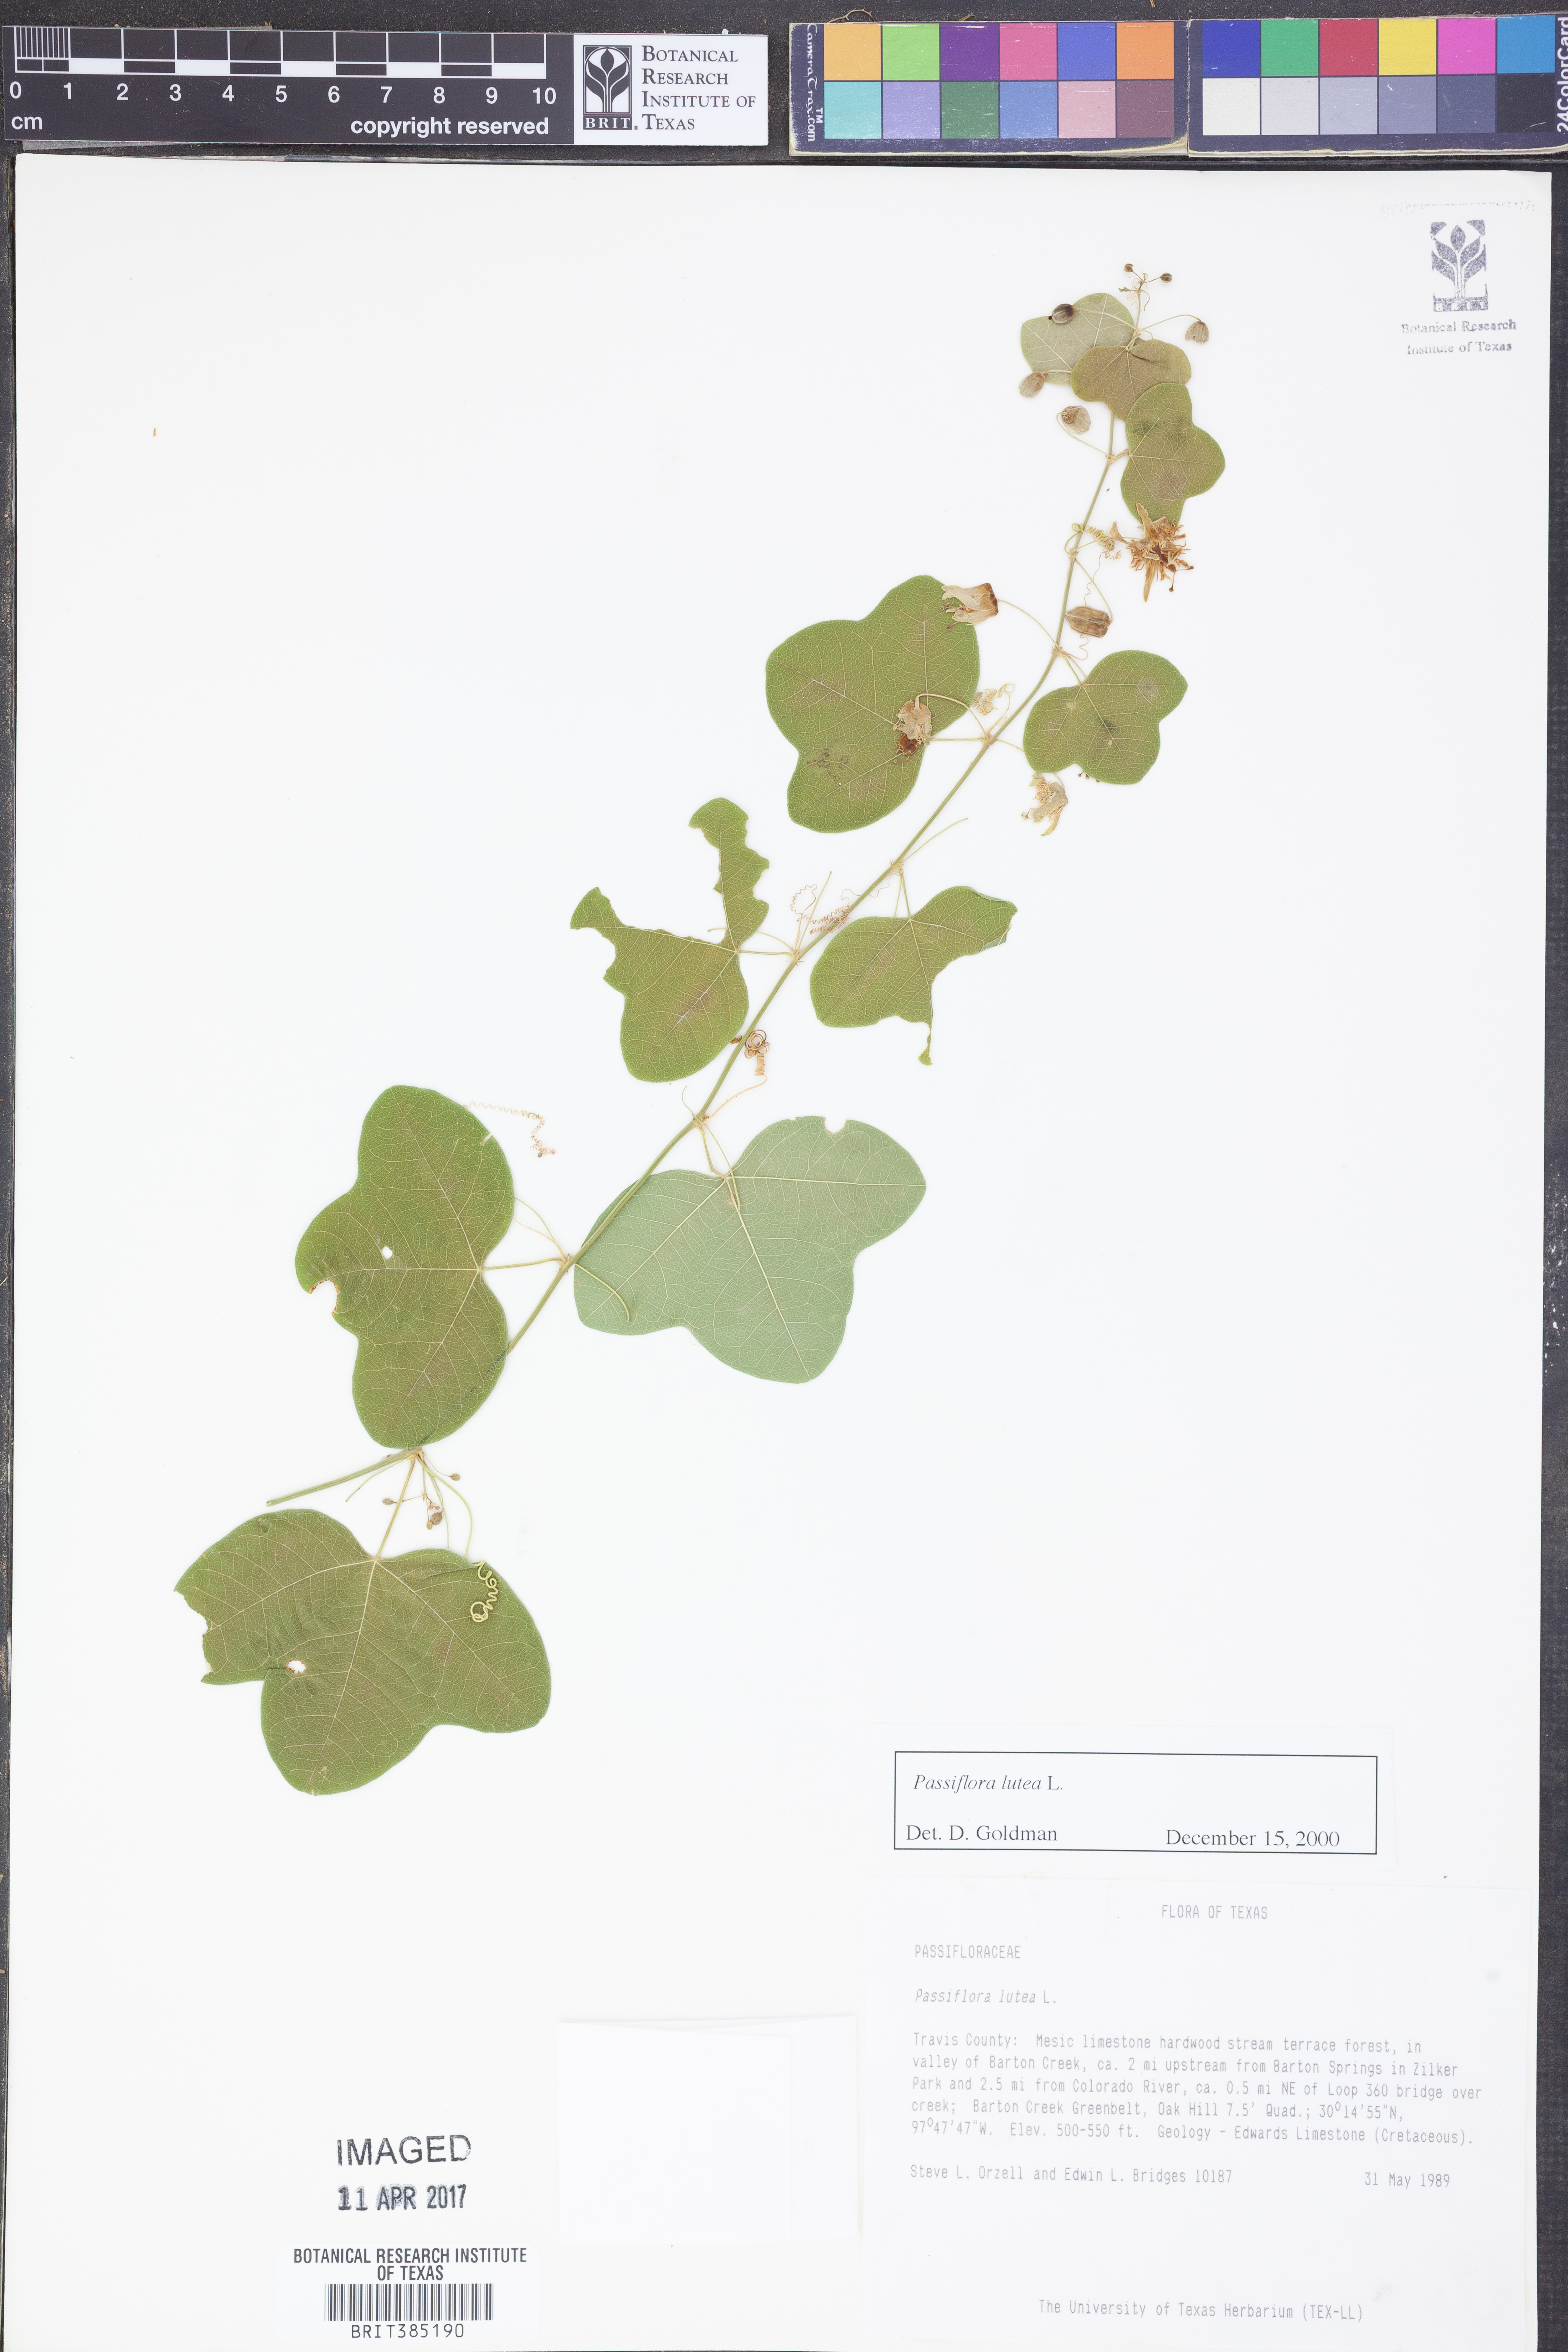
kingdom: Plantae
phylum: Tracheophyta
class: Magnoliopsida
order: Malpighiales
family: Passifloraceae
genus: Passiflora
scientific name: Passiflora lutea
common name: Yellow passionflower
